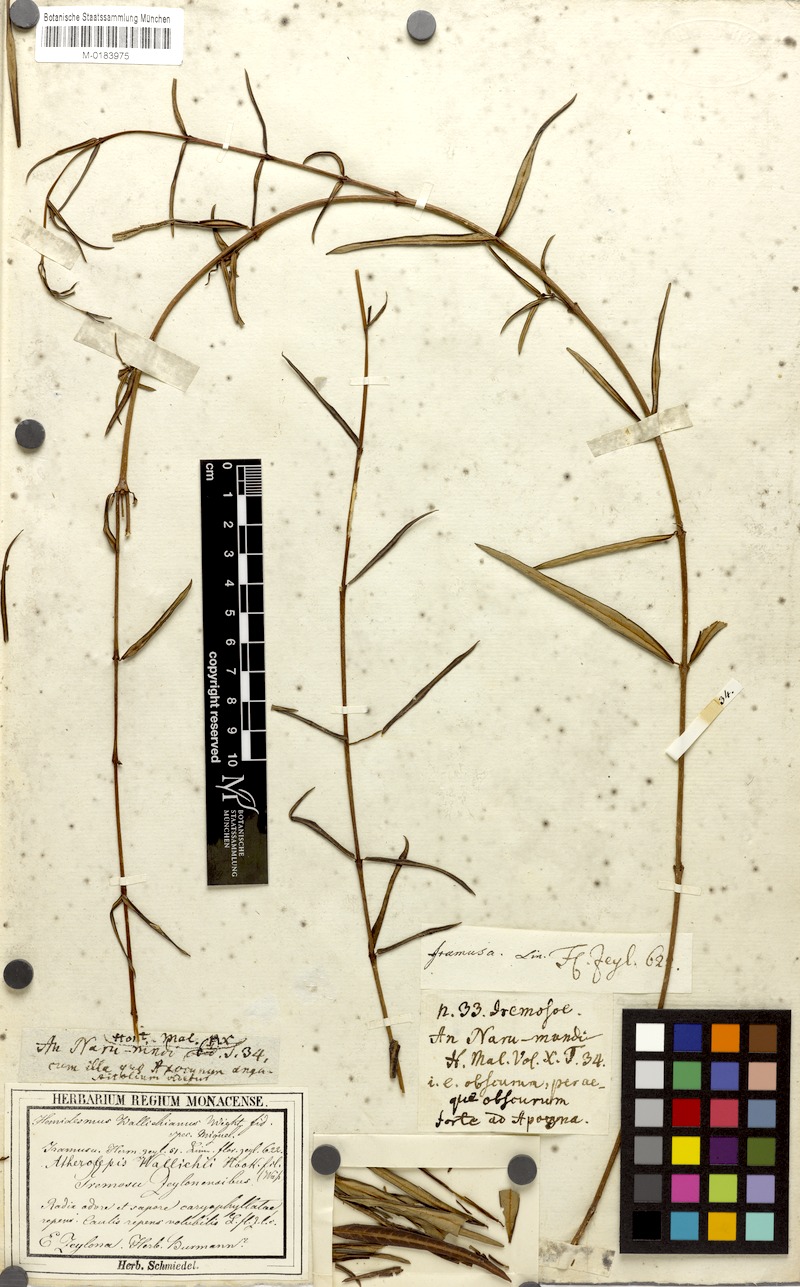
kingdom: Plantae
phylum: Tracheophyta
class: Magnoliopsida
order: Gentianales
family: Apocynaceae
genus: Finlaysonia
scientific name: Finlaysonia wallichii
